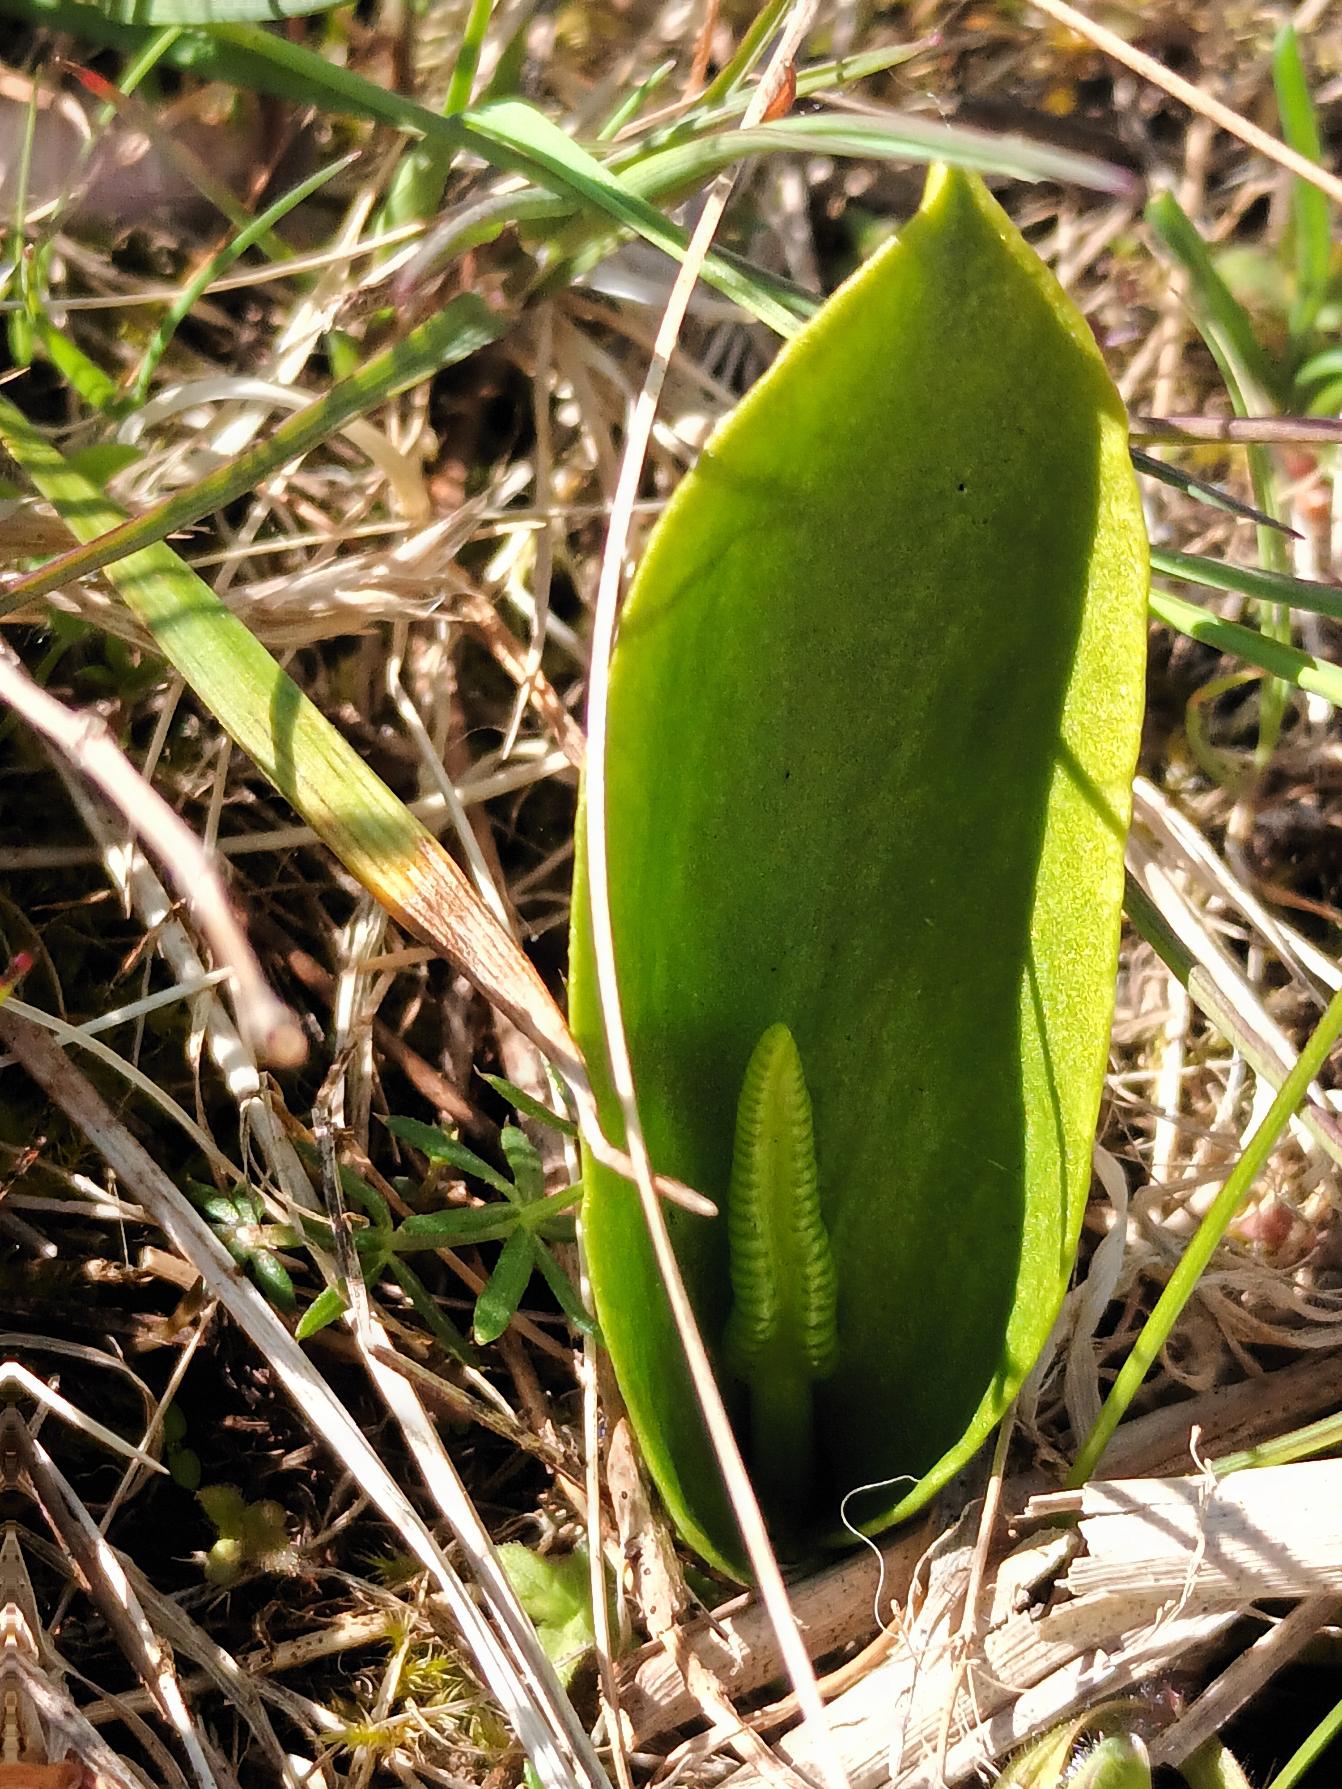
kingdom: Plantae
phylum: Tracheophyta
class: Polypodiopsida
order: Ophioglossales
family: Ophioglossaceae
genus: Ophioglossum
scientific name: Ophioglossum vulgatum
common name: Slangetunge
